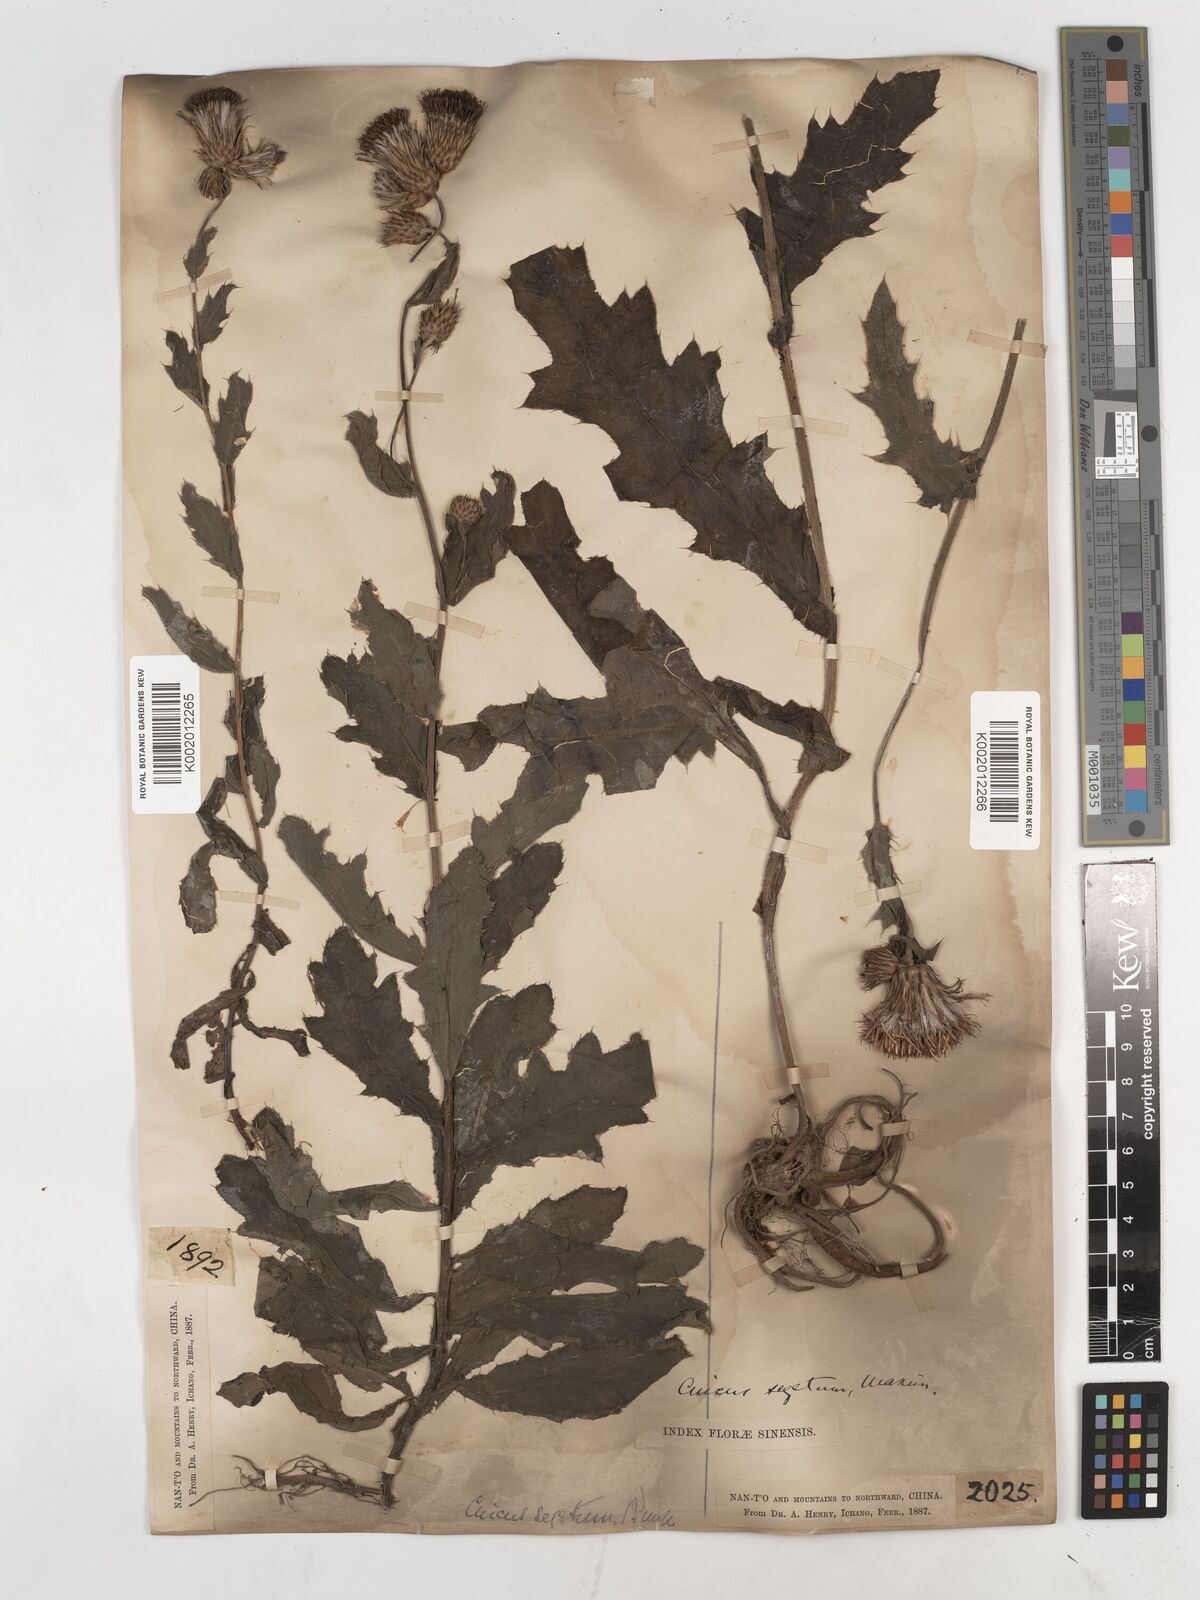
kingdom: Plantae
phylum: Tracheophyta
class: Magnoliopsida
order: Asterales
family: Asteraceae
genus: Cirsium
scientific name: Cirsium
